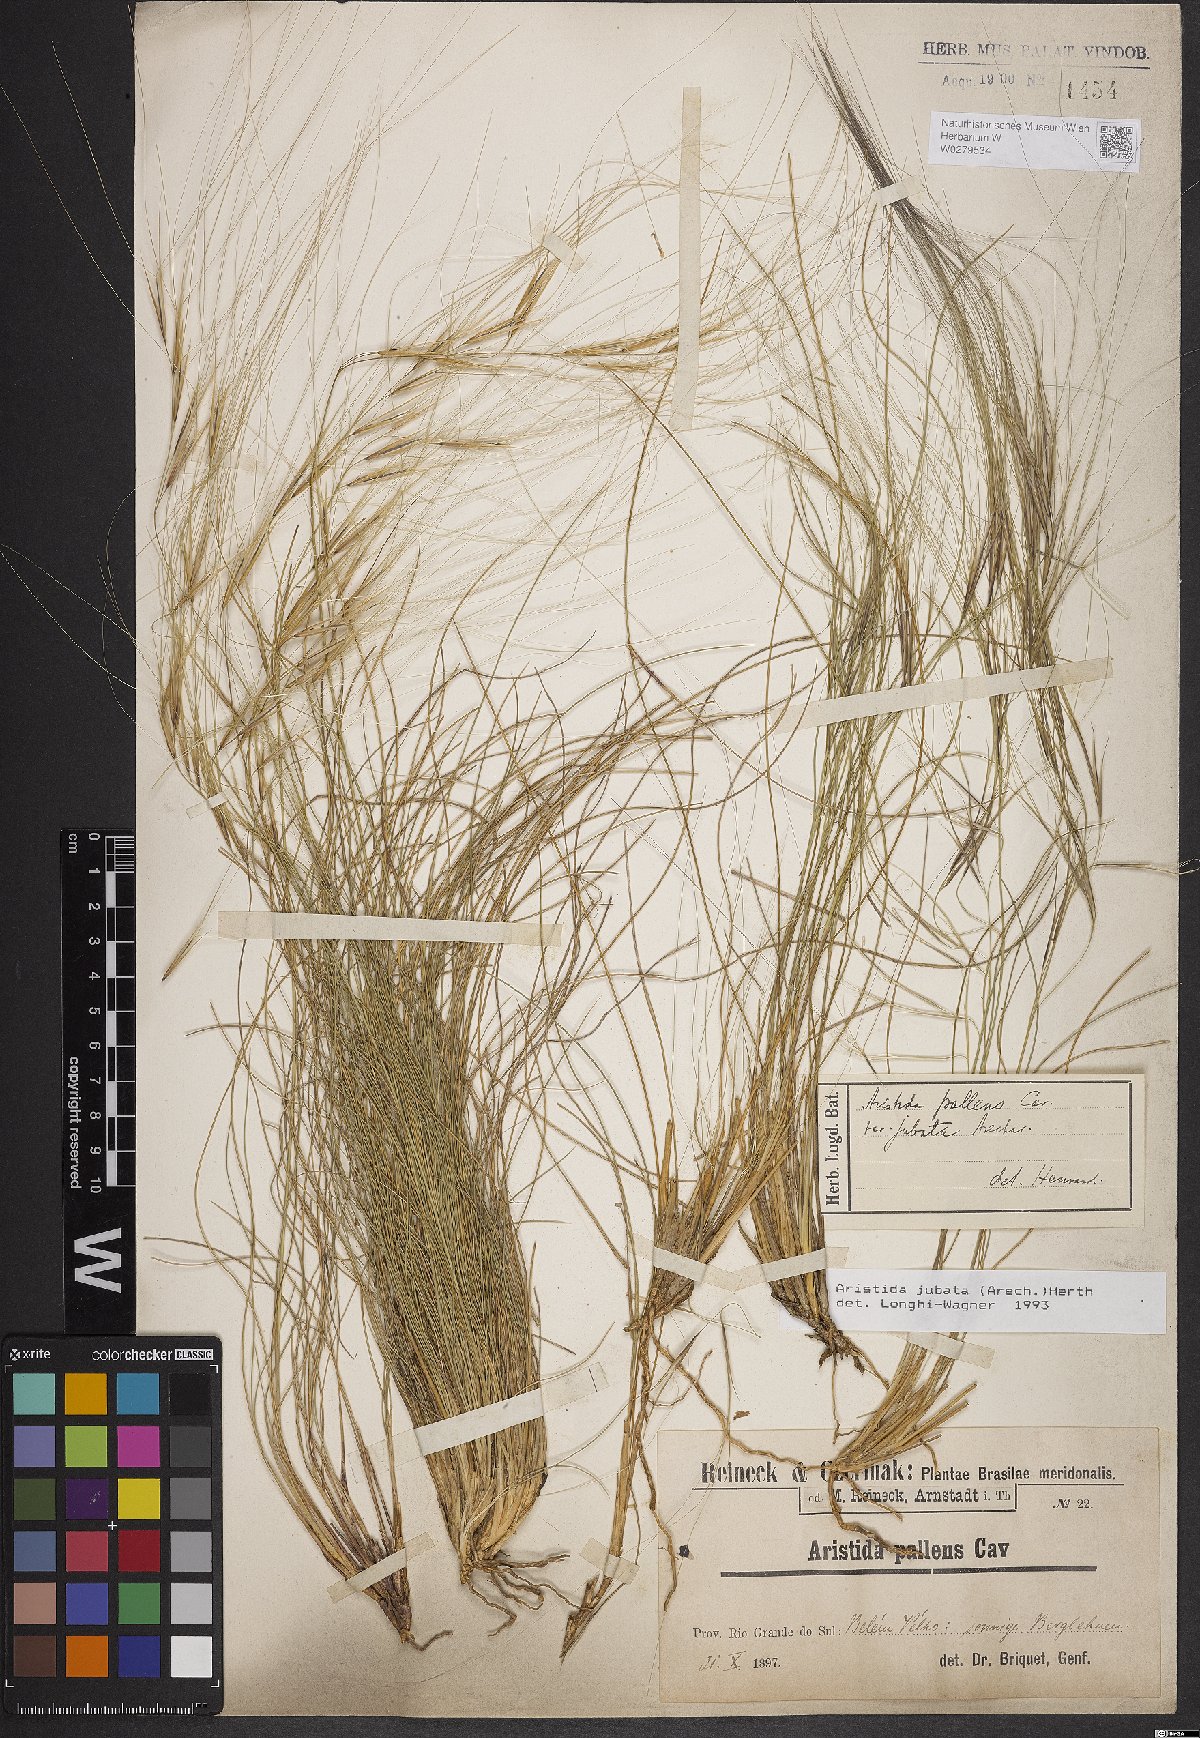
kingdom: Plantae
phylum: Tracheophyta
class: Liliopsida
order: Poales
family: Poaceae
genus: Aristida
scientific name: Aristida jubata
